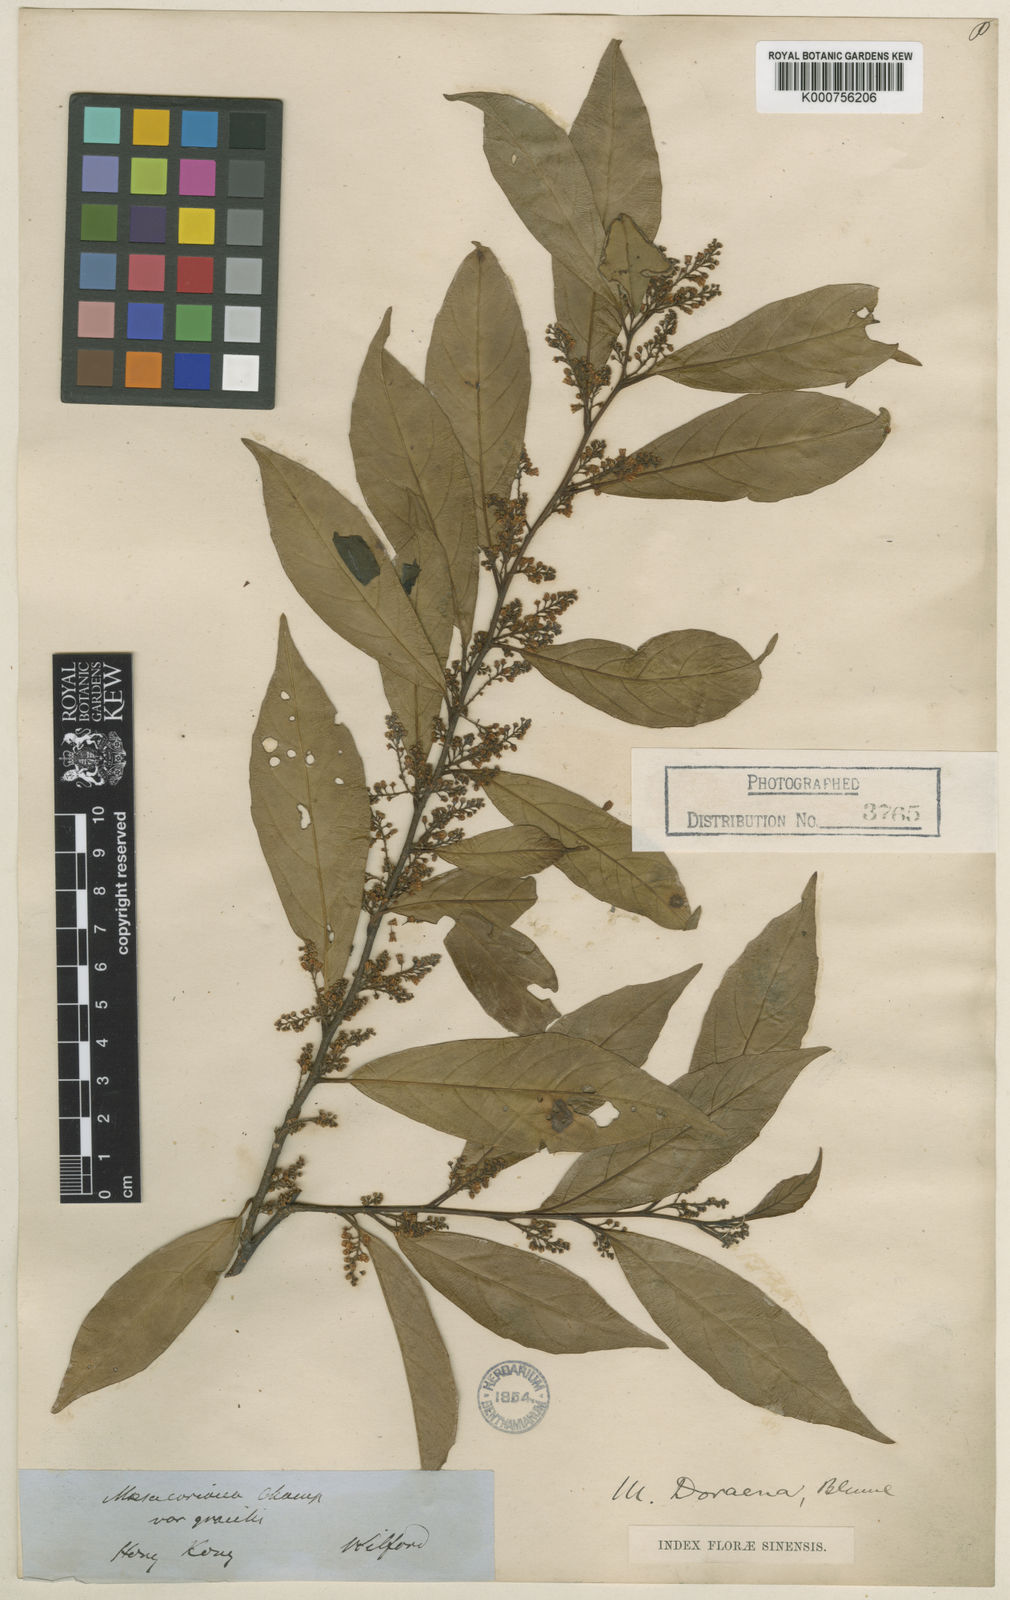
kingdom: Plantae
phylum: Tracheophyta
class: Magnoliopsida
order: Ericales
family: Primulaceae
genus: Maesa
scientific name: Maesa
